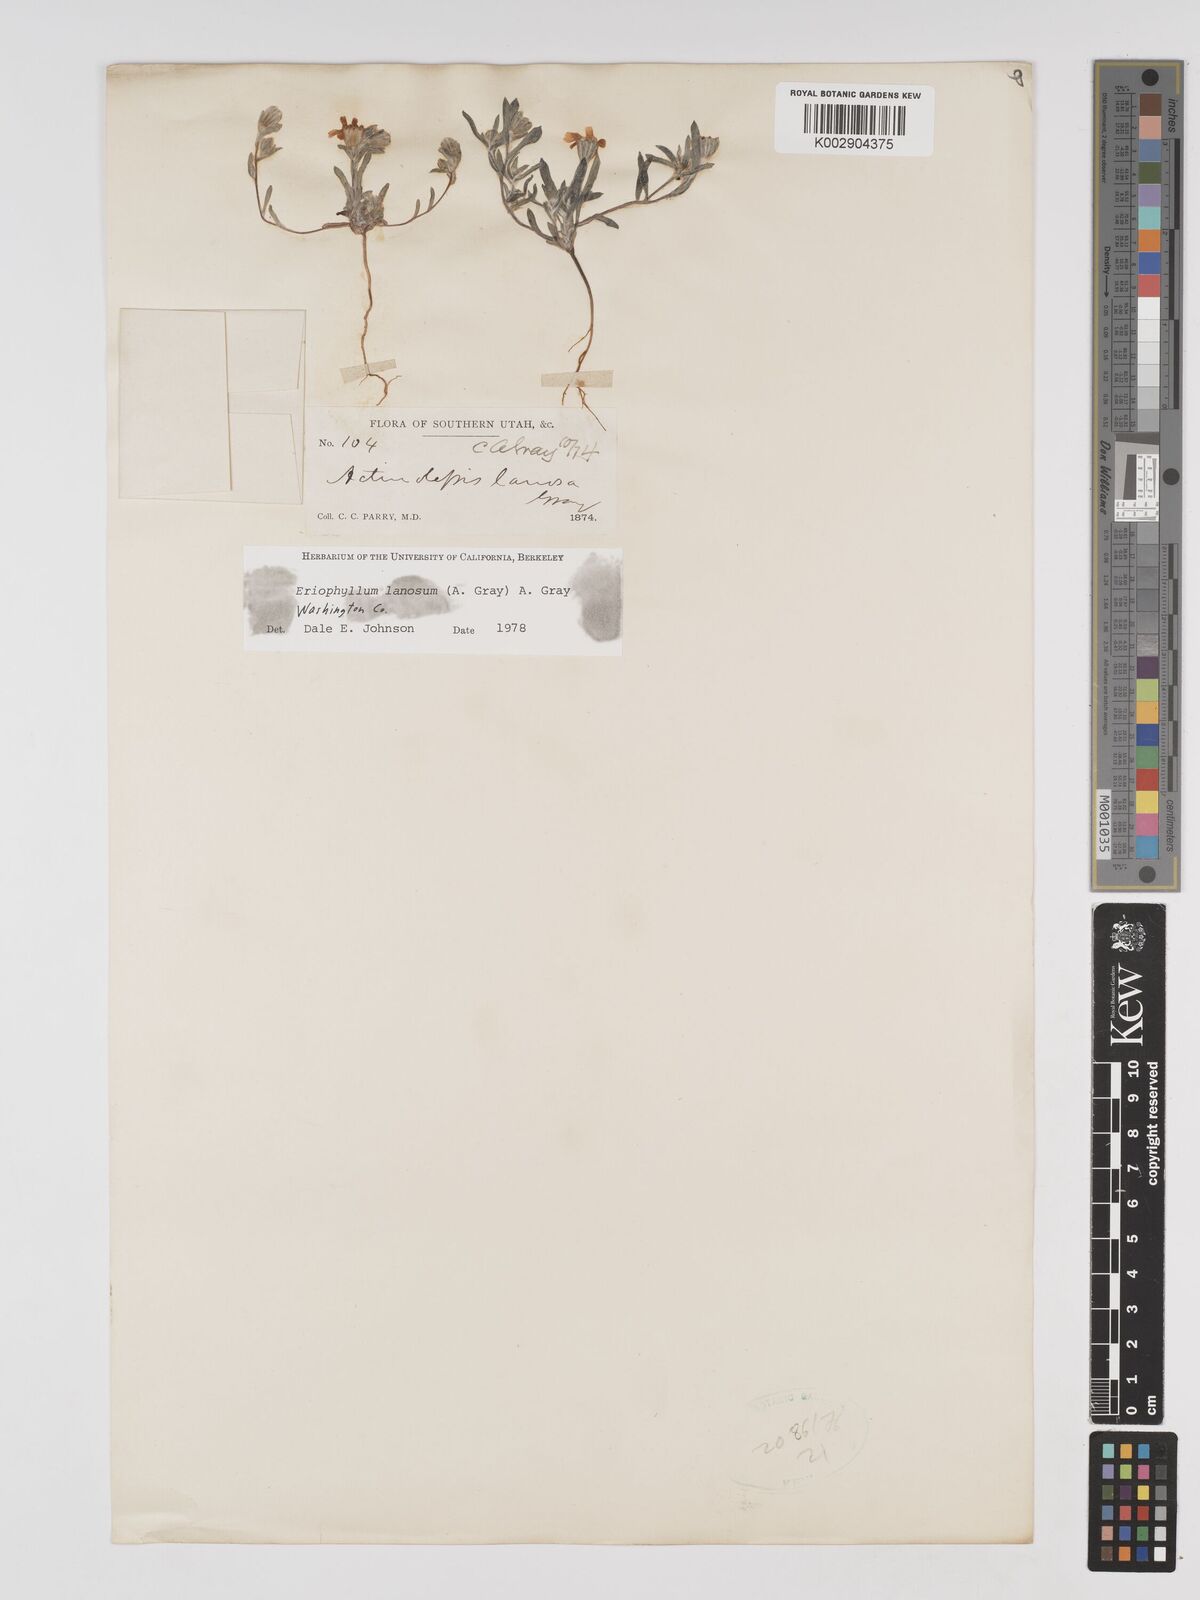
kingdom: Plantae
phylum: Tracheophyta
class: Magnoliopsida
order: Asterales
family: Asteraceae
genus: Eriophyllum
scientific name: Eriophyllum lanosum
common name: White easter-bonnets
